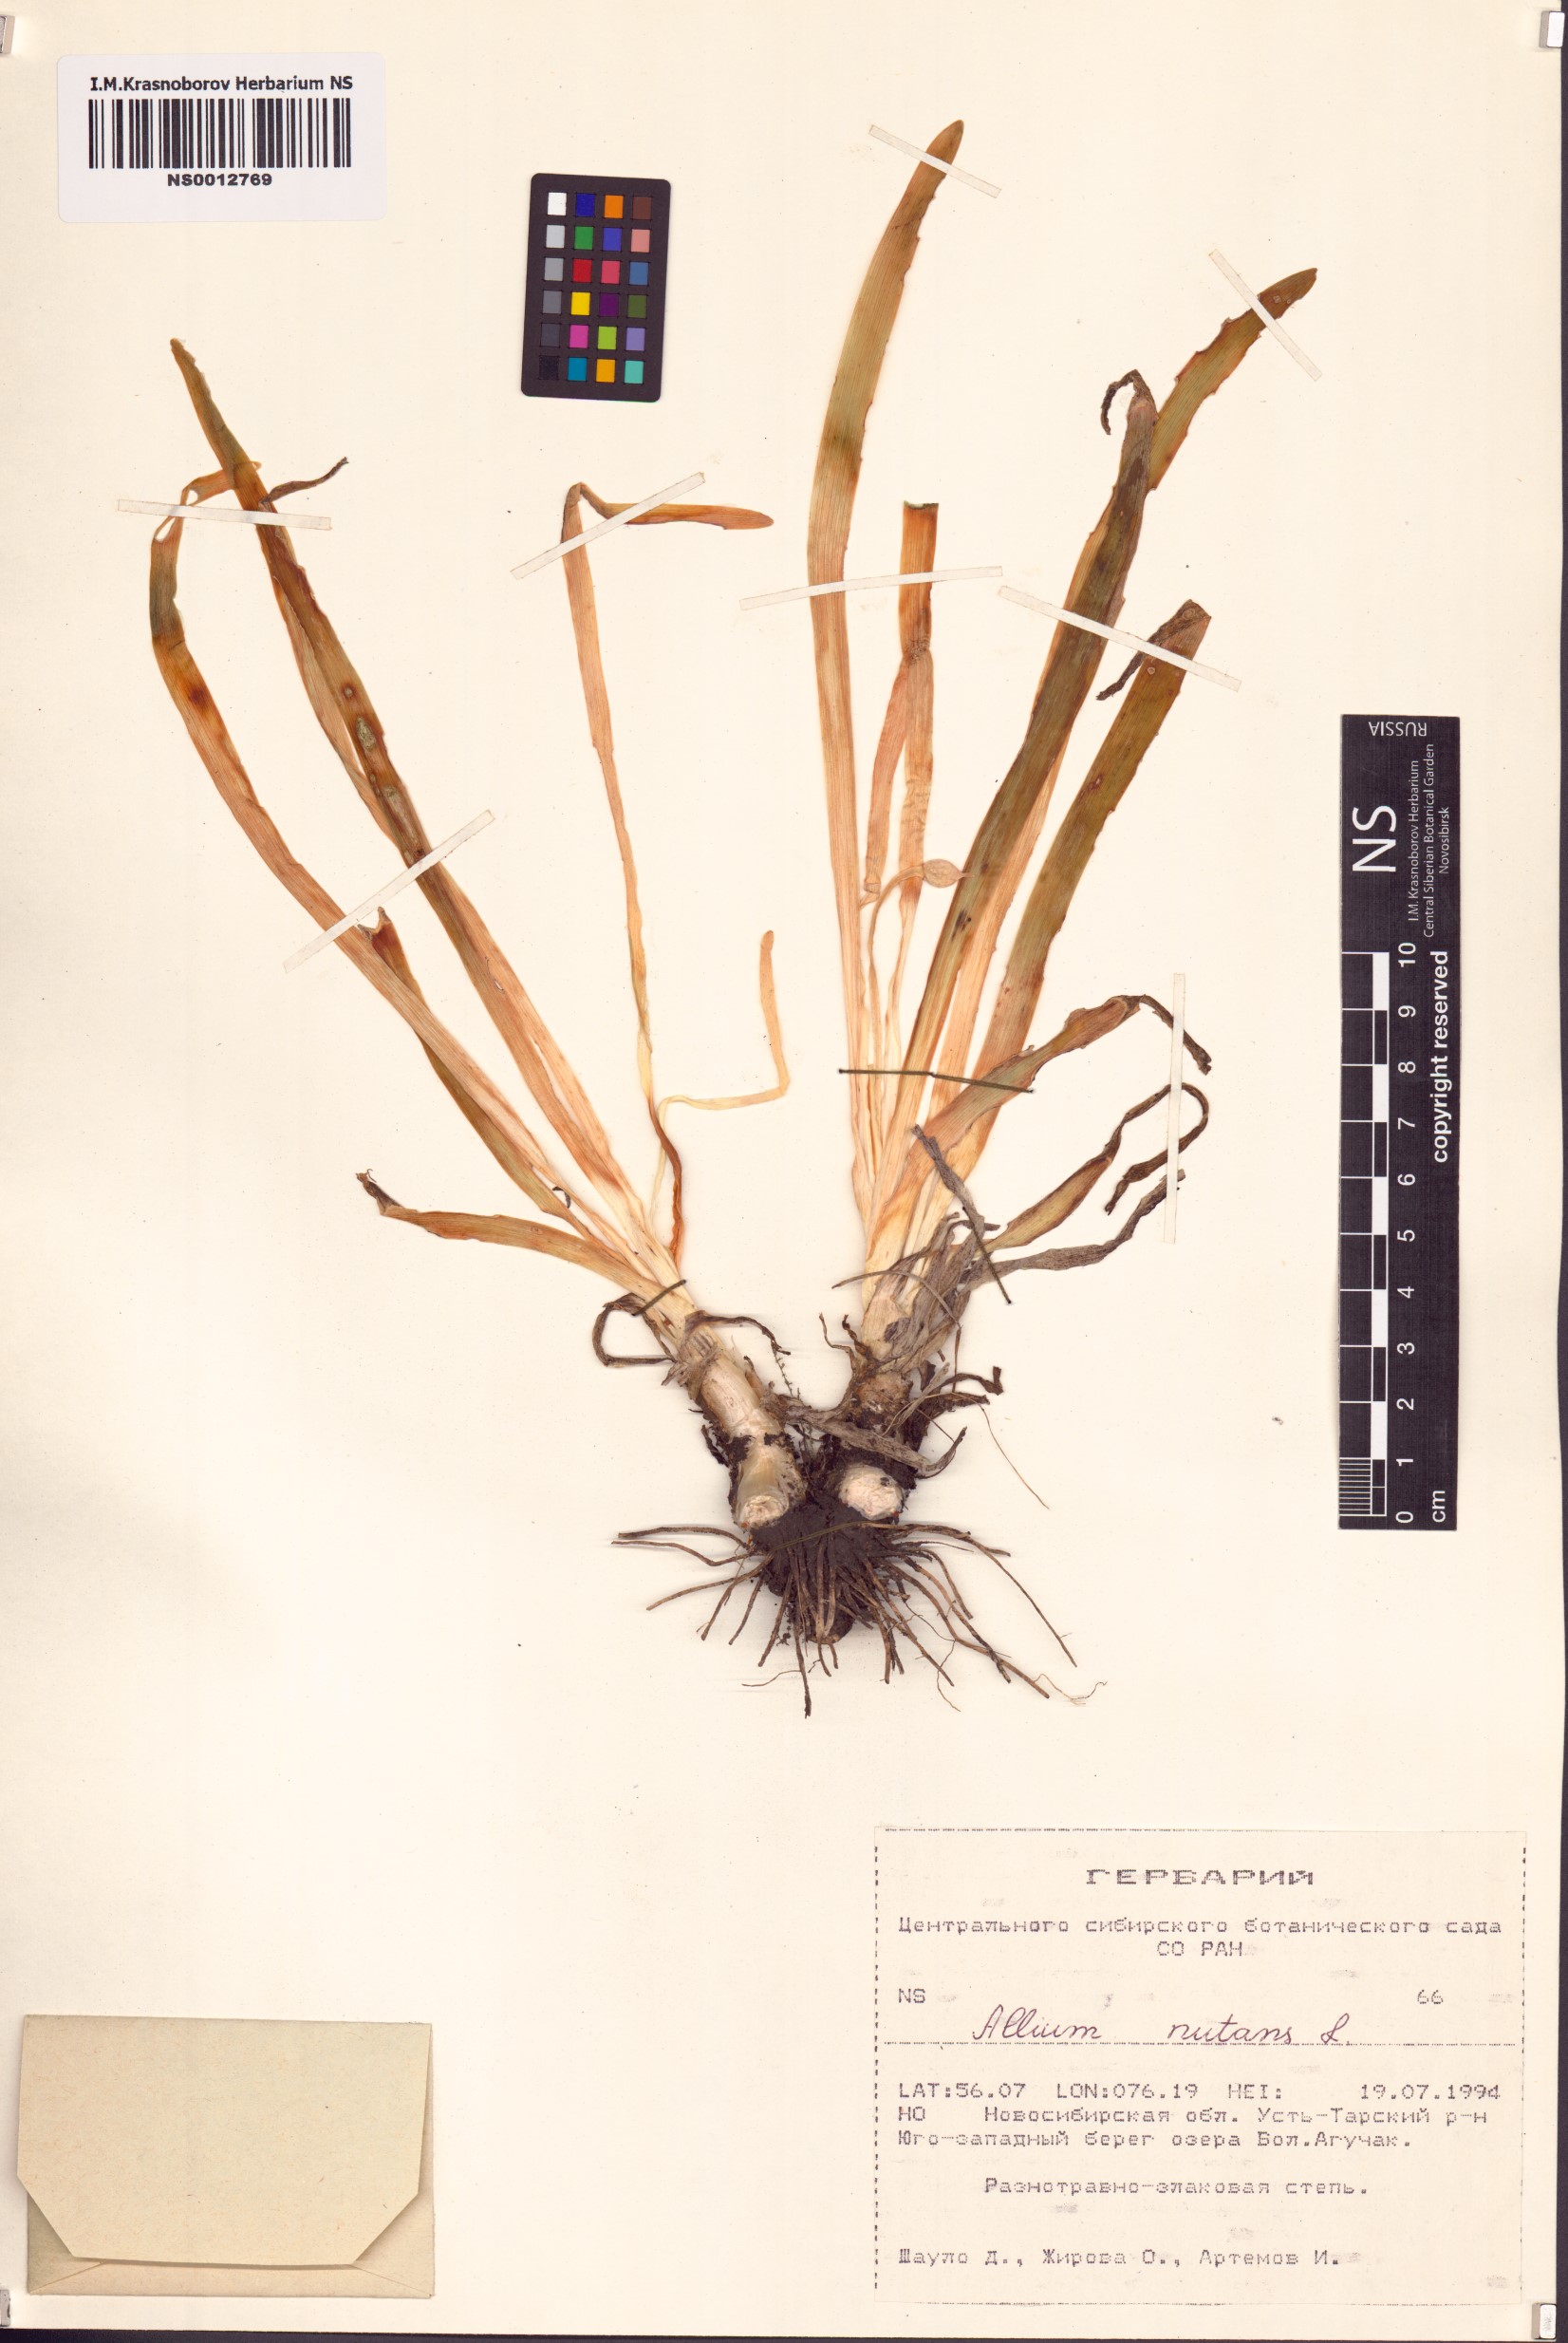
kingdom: Plantae
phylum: Tracheophyta
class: Liliopsida
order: Asparagales
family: Amaryllidaceae
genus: Allium
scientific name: Allium nutans
